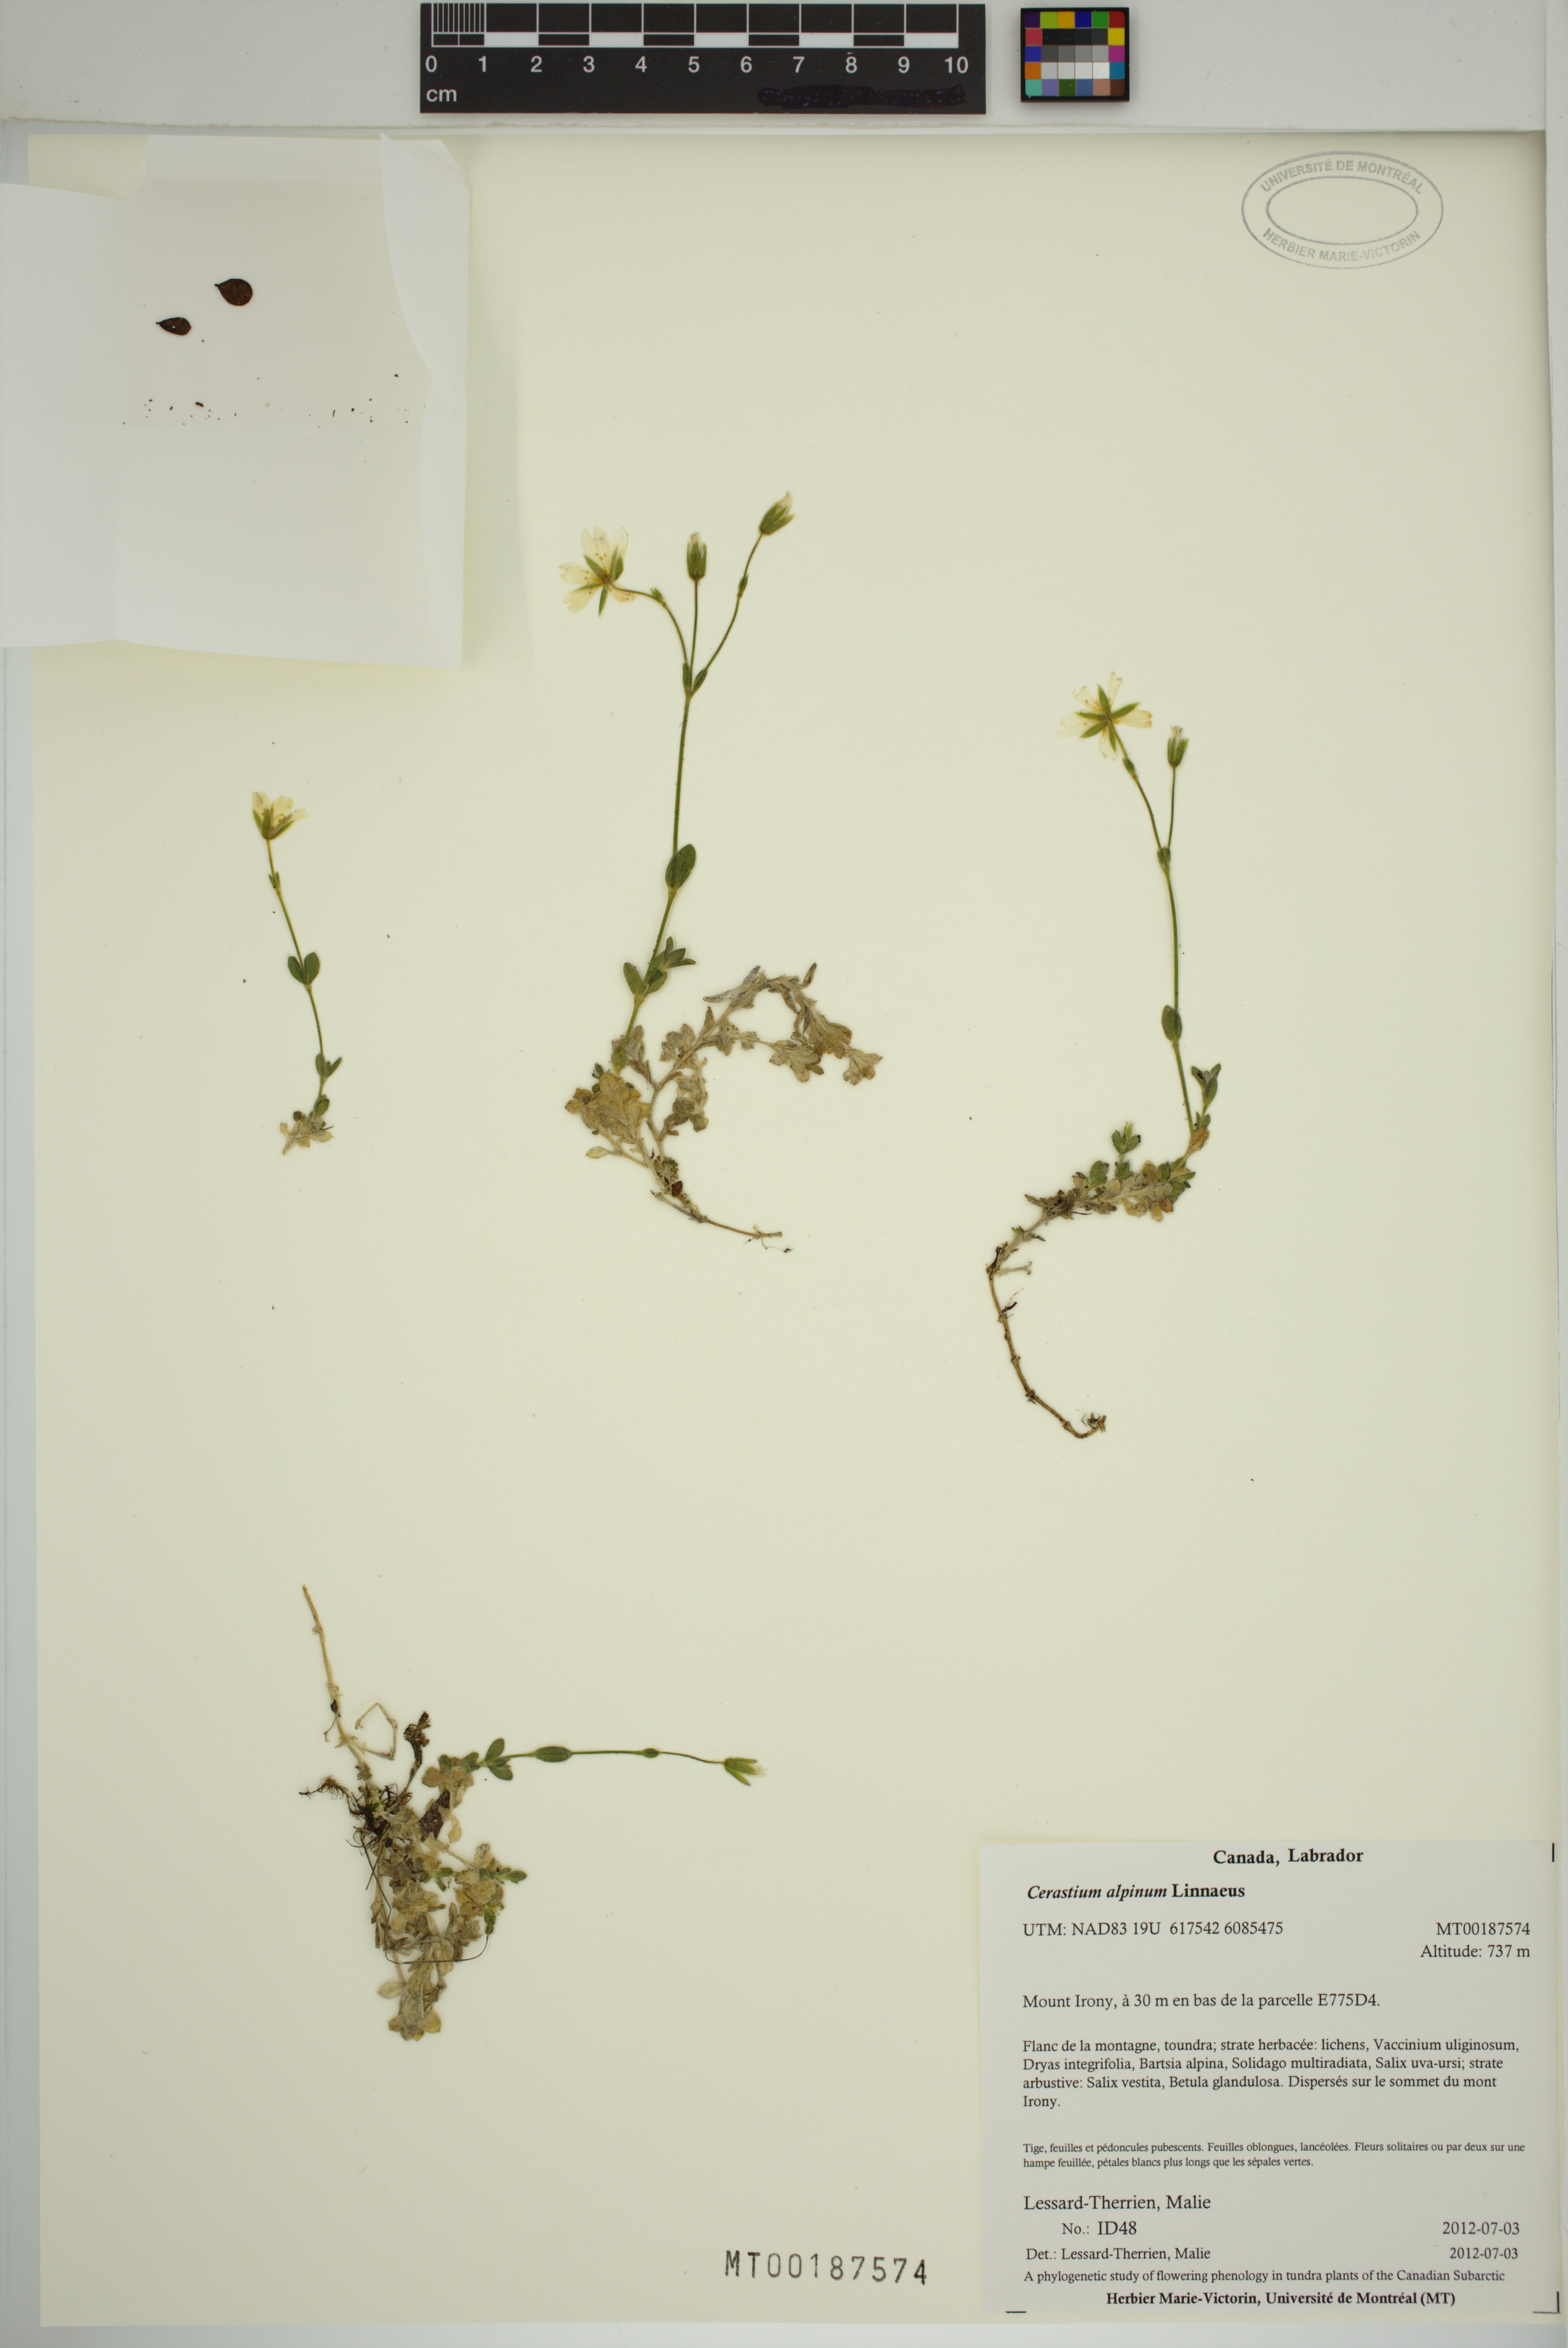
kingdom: Plantae
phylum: Tracheophyta
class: Magnoliopsida
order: Caryophyllales
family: Caryophyllaceae
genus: Cerastium
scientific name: Cerastium alpinum
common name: Alpine mouse-ear
